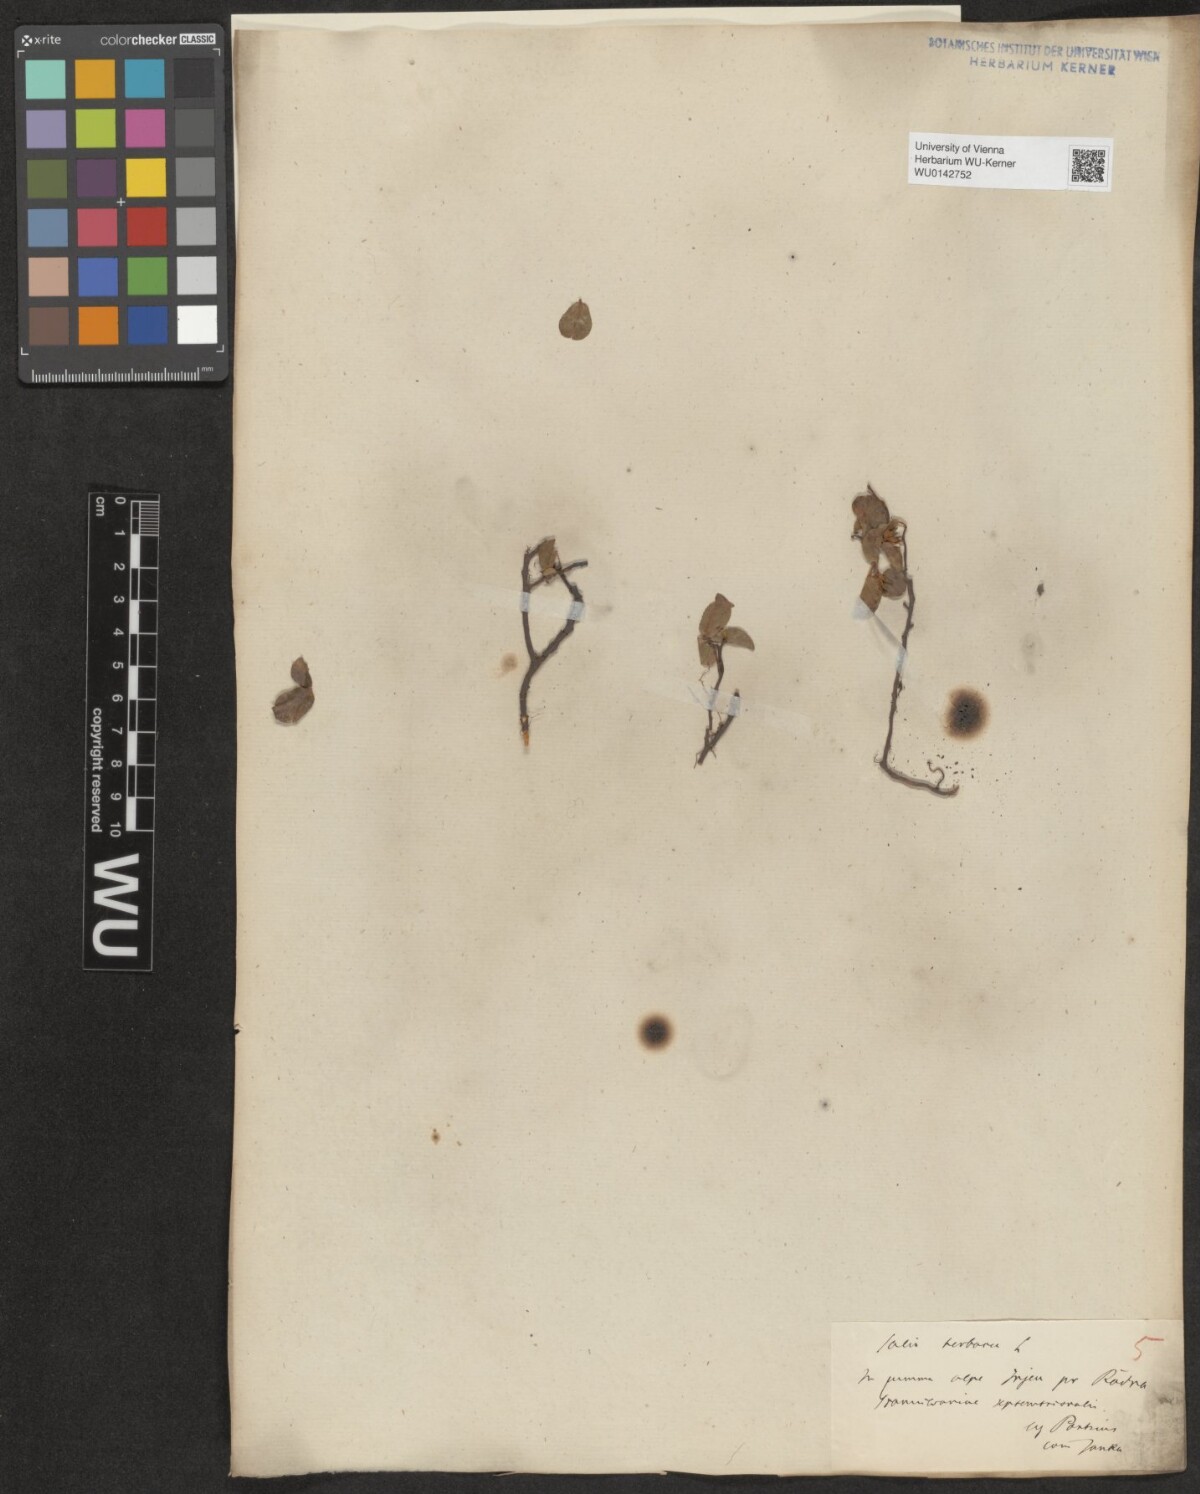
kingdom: Plantae
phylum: Tracheophyta
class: Magnoliopsida
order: Malpighiales
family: Salicaceae
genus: Salix
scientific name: Salix herbacea
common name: Dwarf willow
